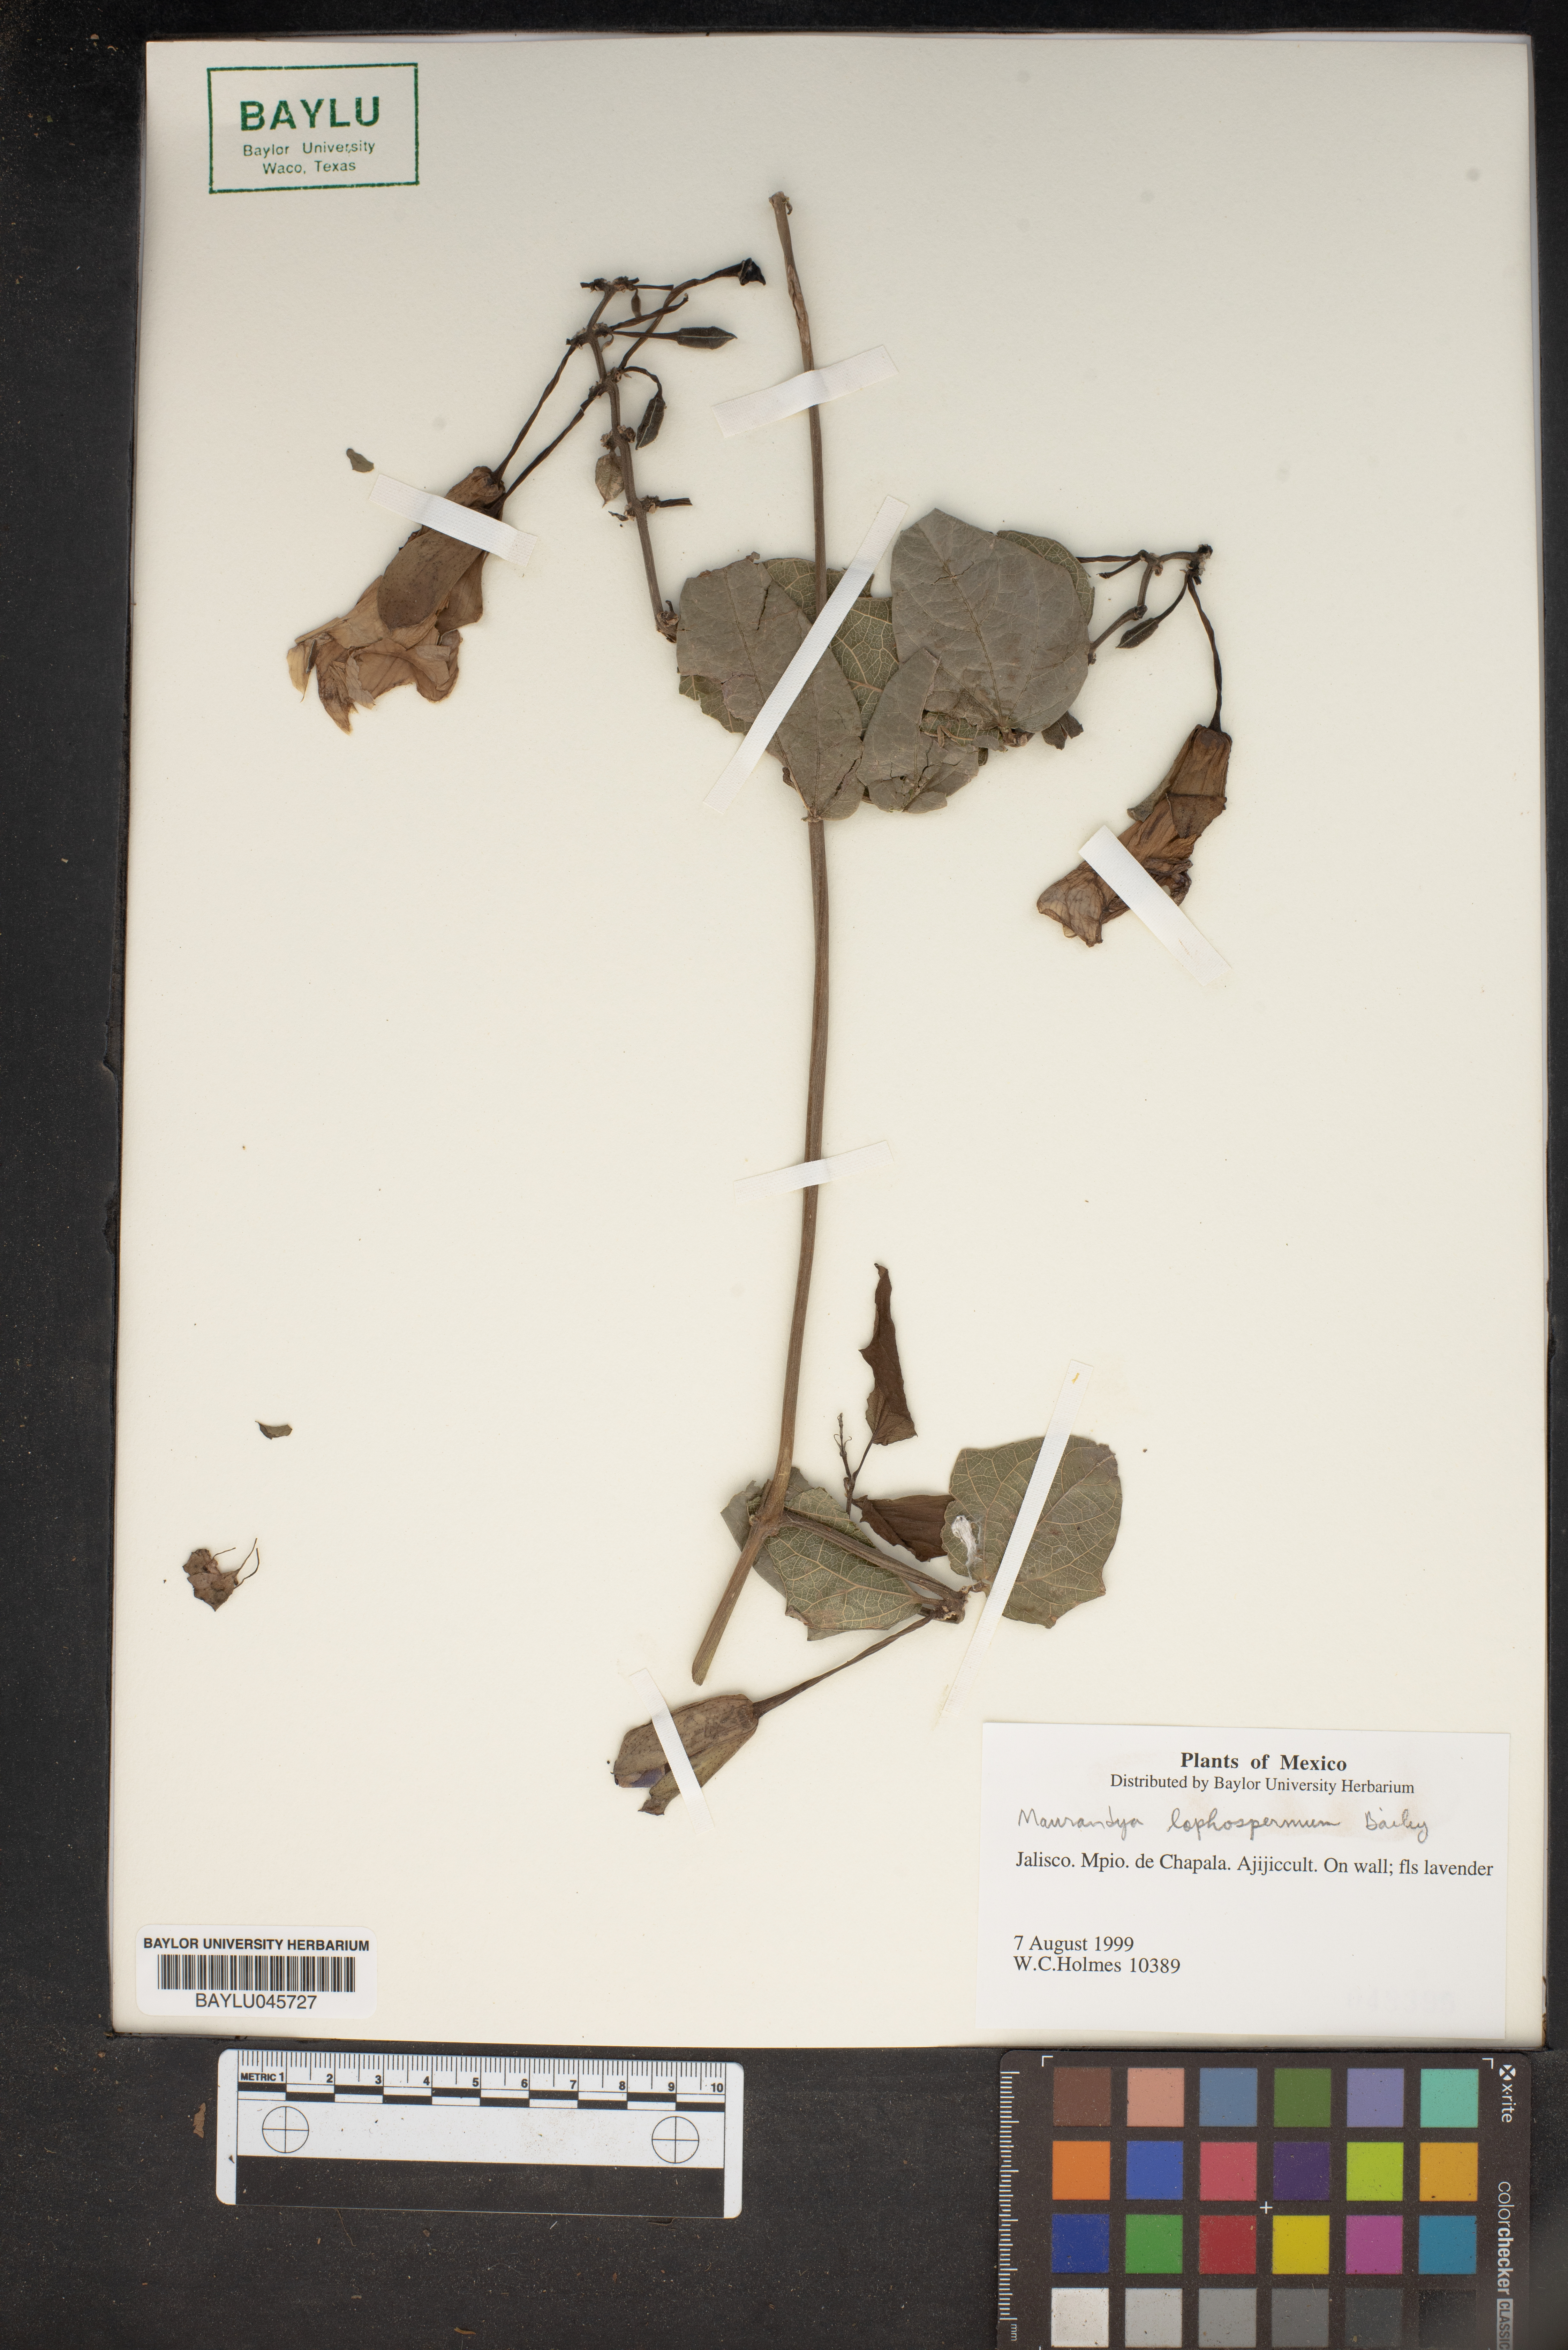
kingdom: Plantae
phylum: Tracheophyta
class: Magnoliopsida
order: Lamiales
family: Plantaginaceae
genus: Lophospermum
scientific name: Lophospermum erubescens
